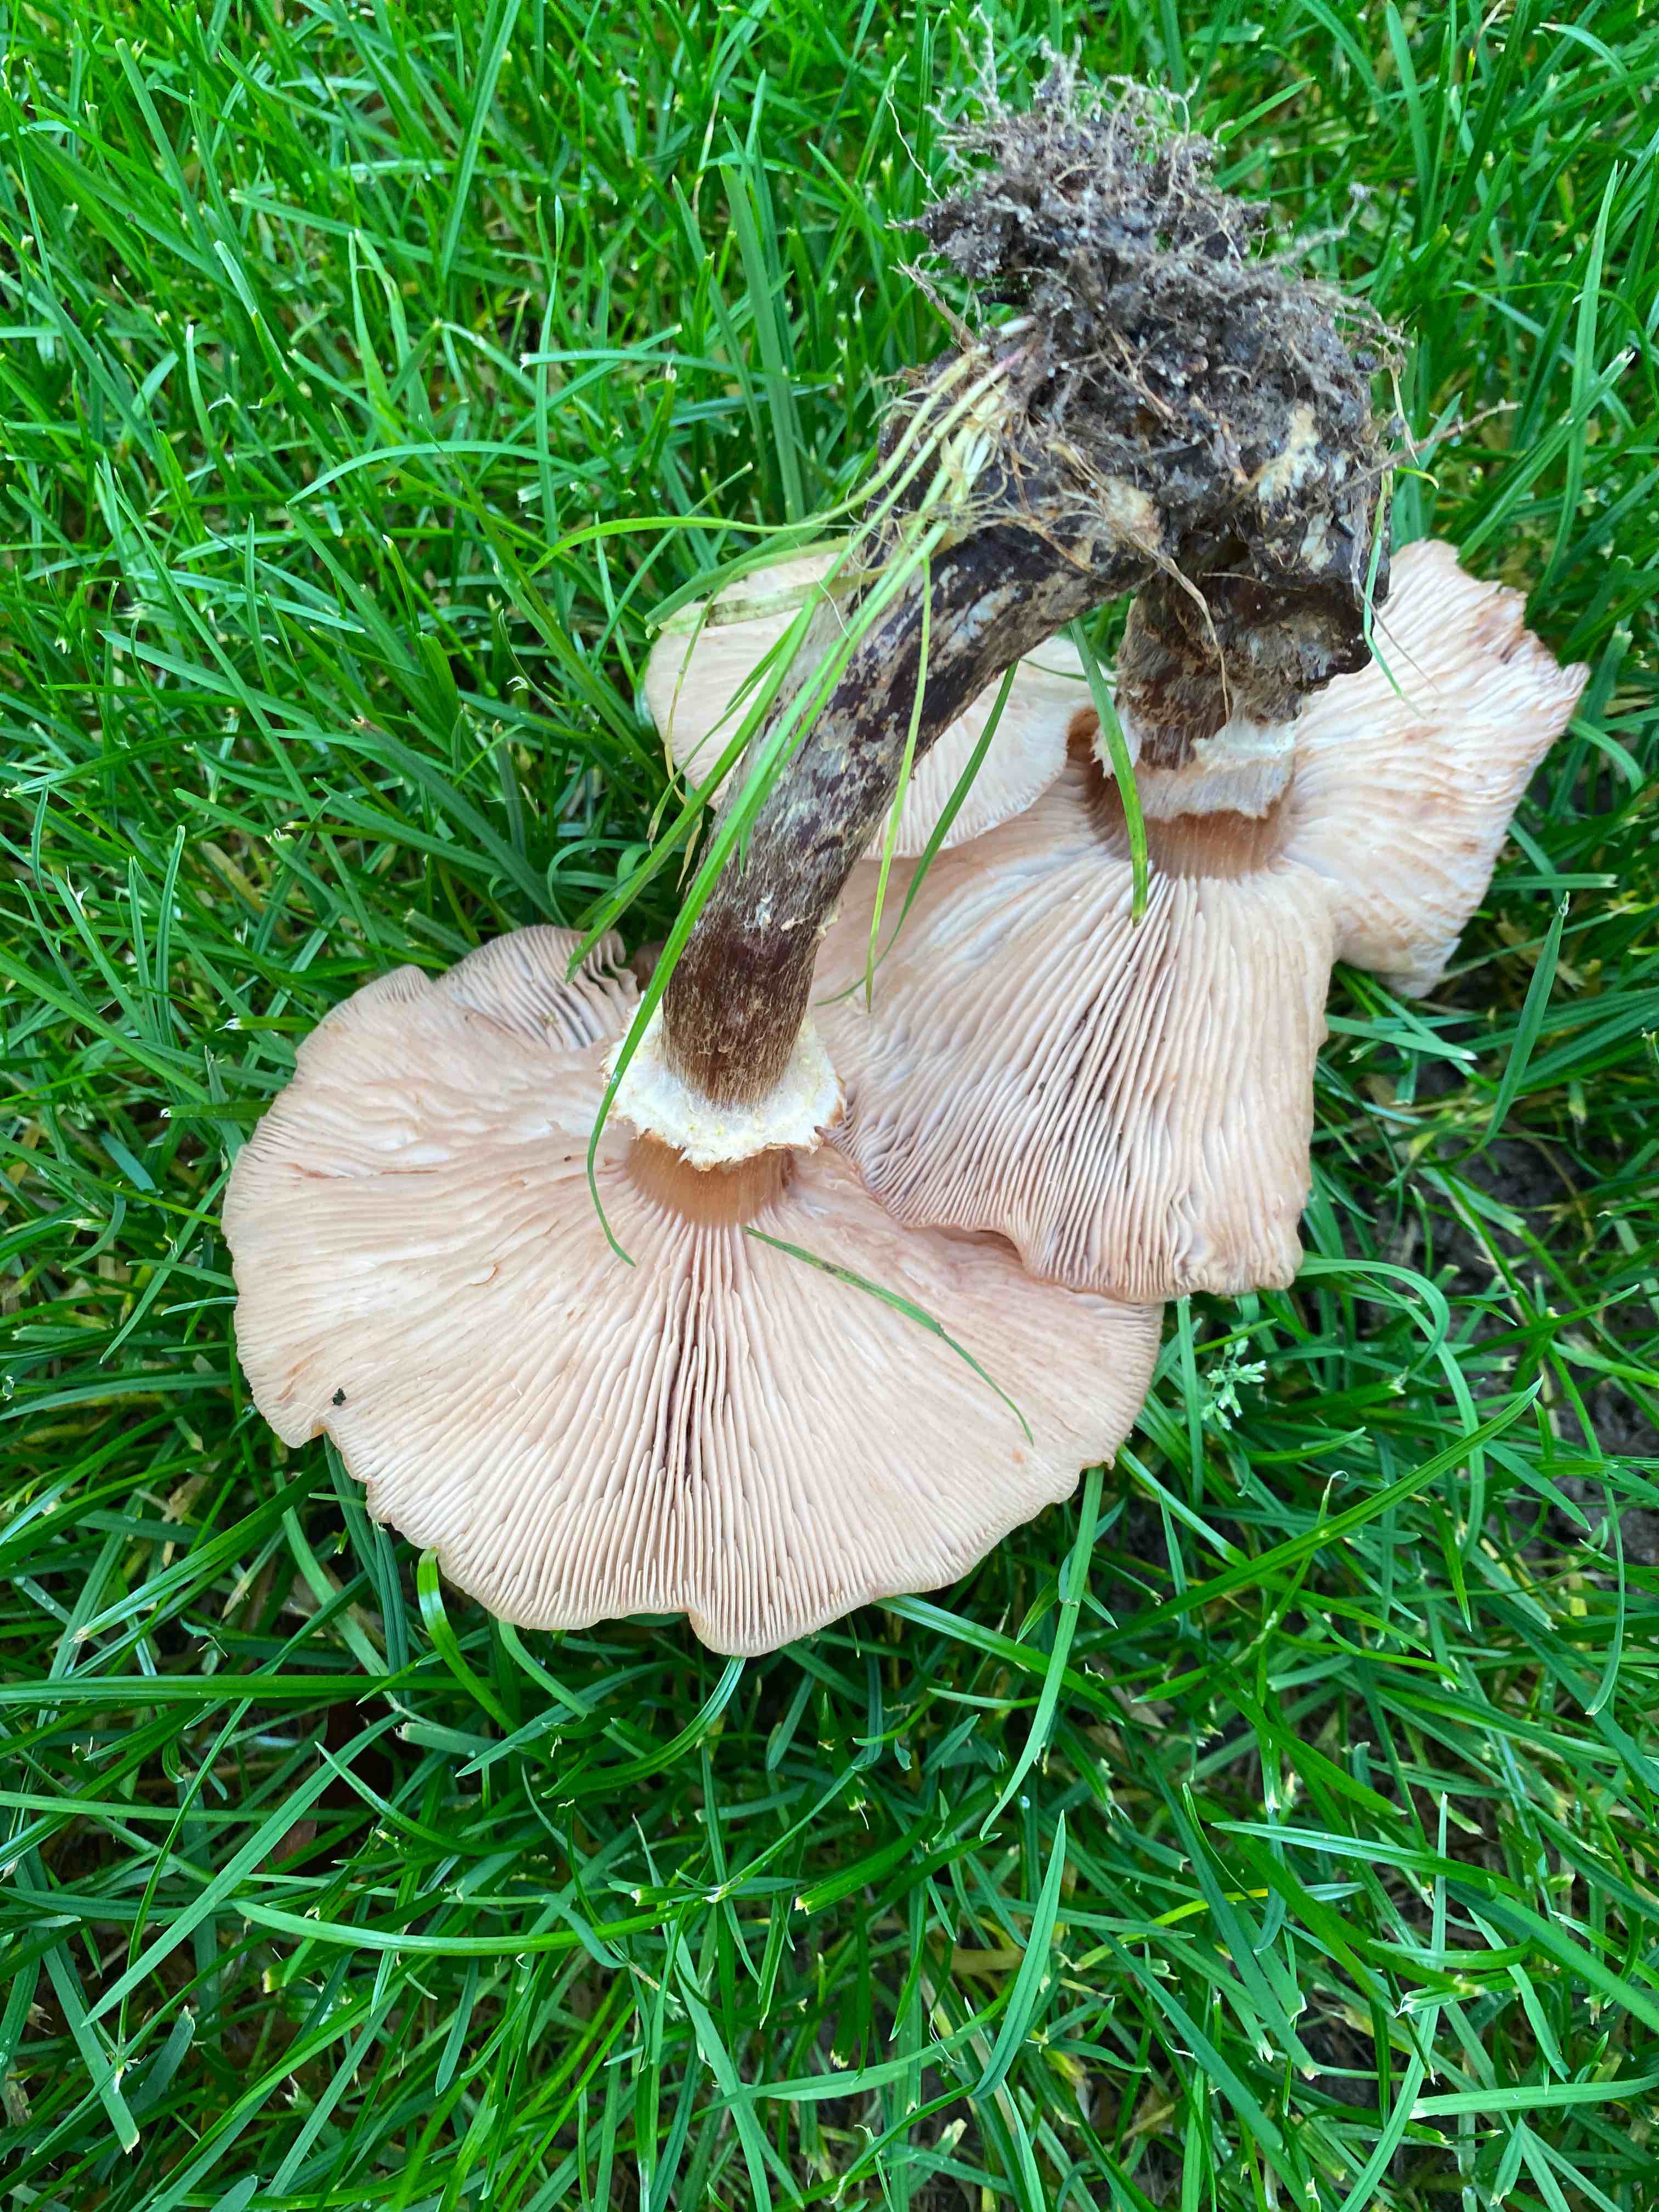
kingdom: Fungi
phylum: Basidiomycota
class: Agaricomycetes
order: Agaricales
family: Physalacriaceae
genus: Armillaria
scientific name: Armillaria
